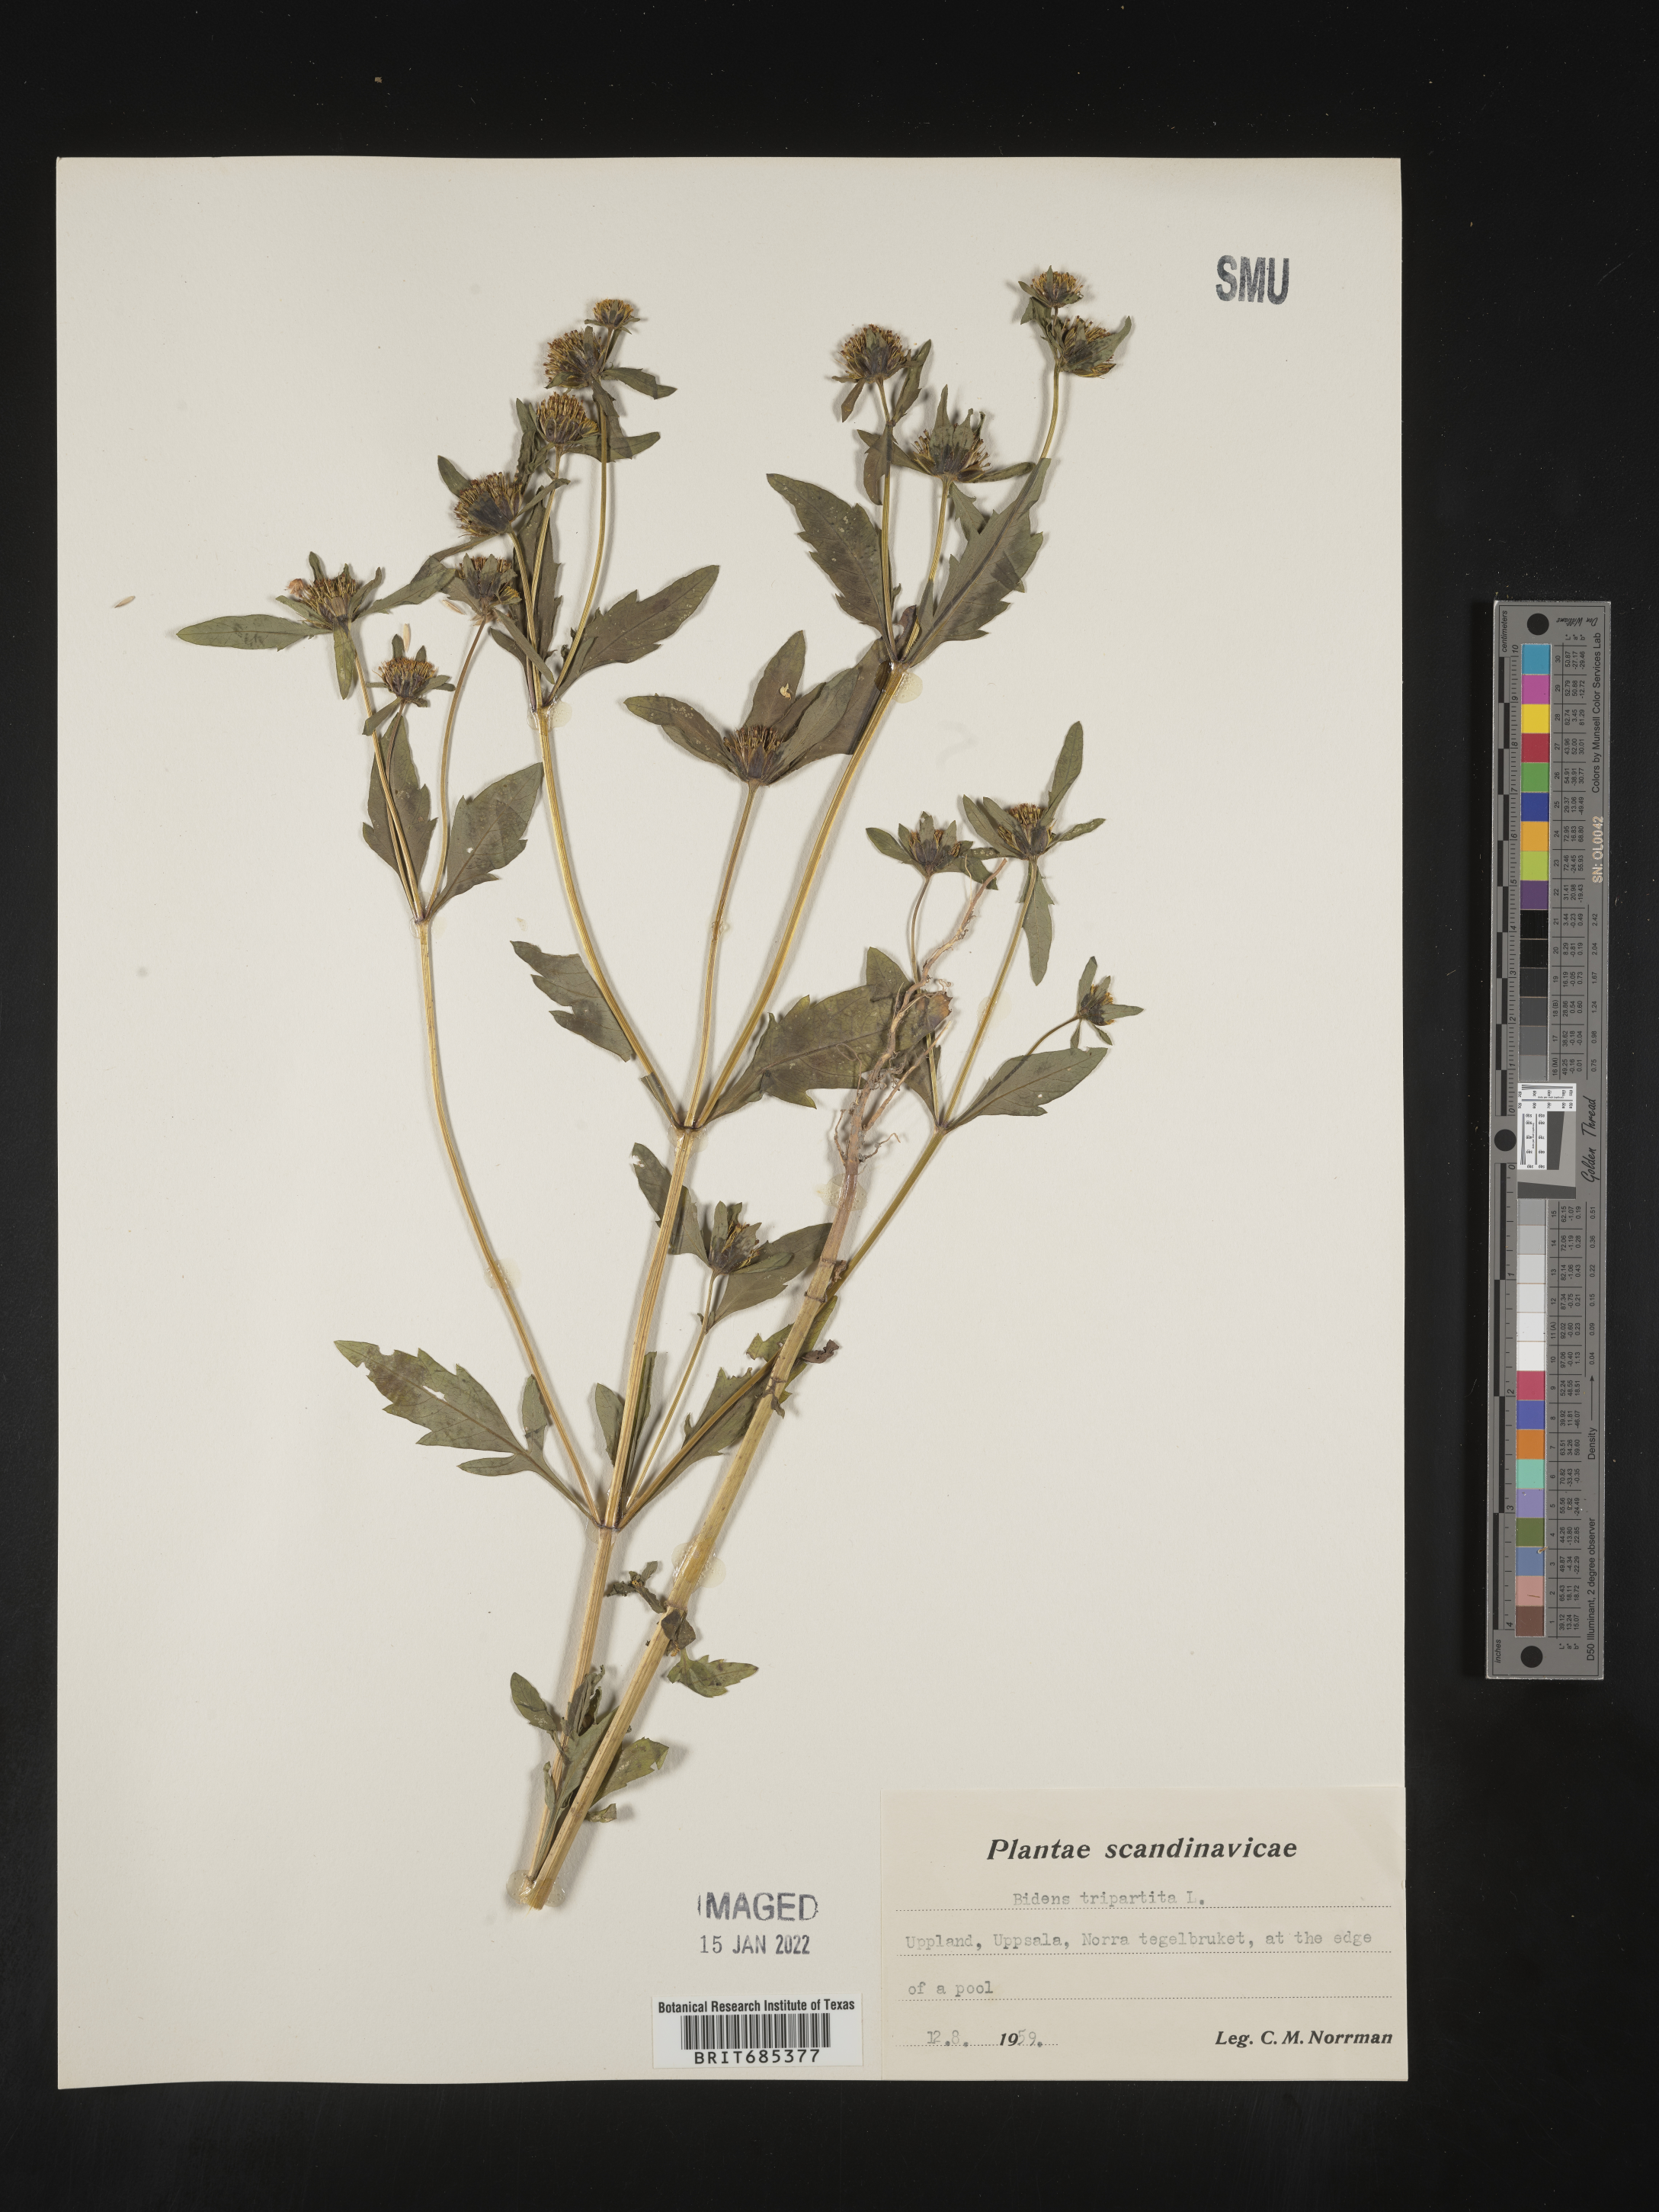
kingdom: Plantae
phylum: Tracheophyta
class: Magnoliopsida
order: Asterales
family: Asteraceae
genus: Bidens
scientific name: Bidens
